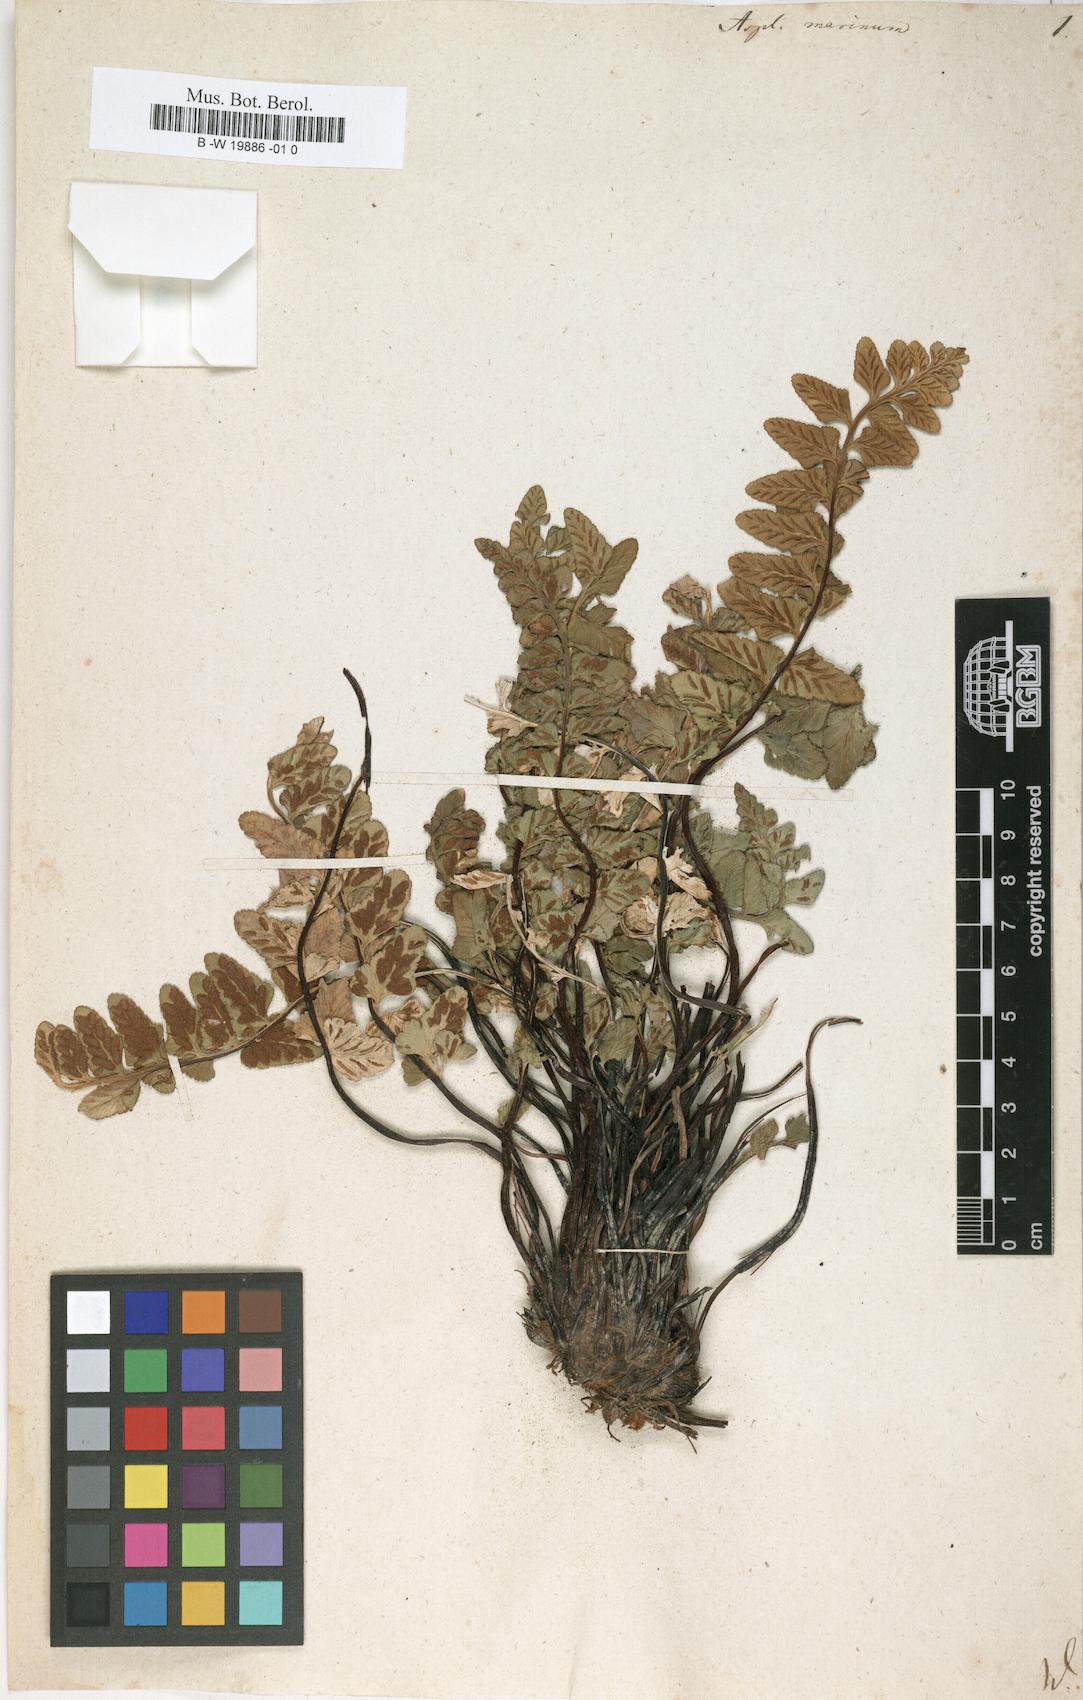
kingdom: Plantae
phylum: Tracheophyta
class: Polypodiopsida
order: Polypodiales
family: Aspleniaceae
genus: Asplenium
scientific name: Asplenium marinum
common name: Sea spleenwort
